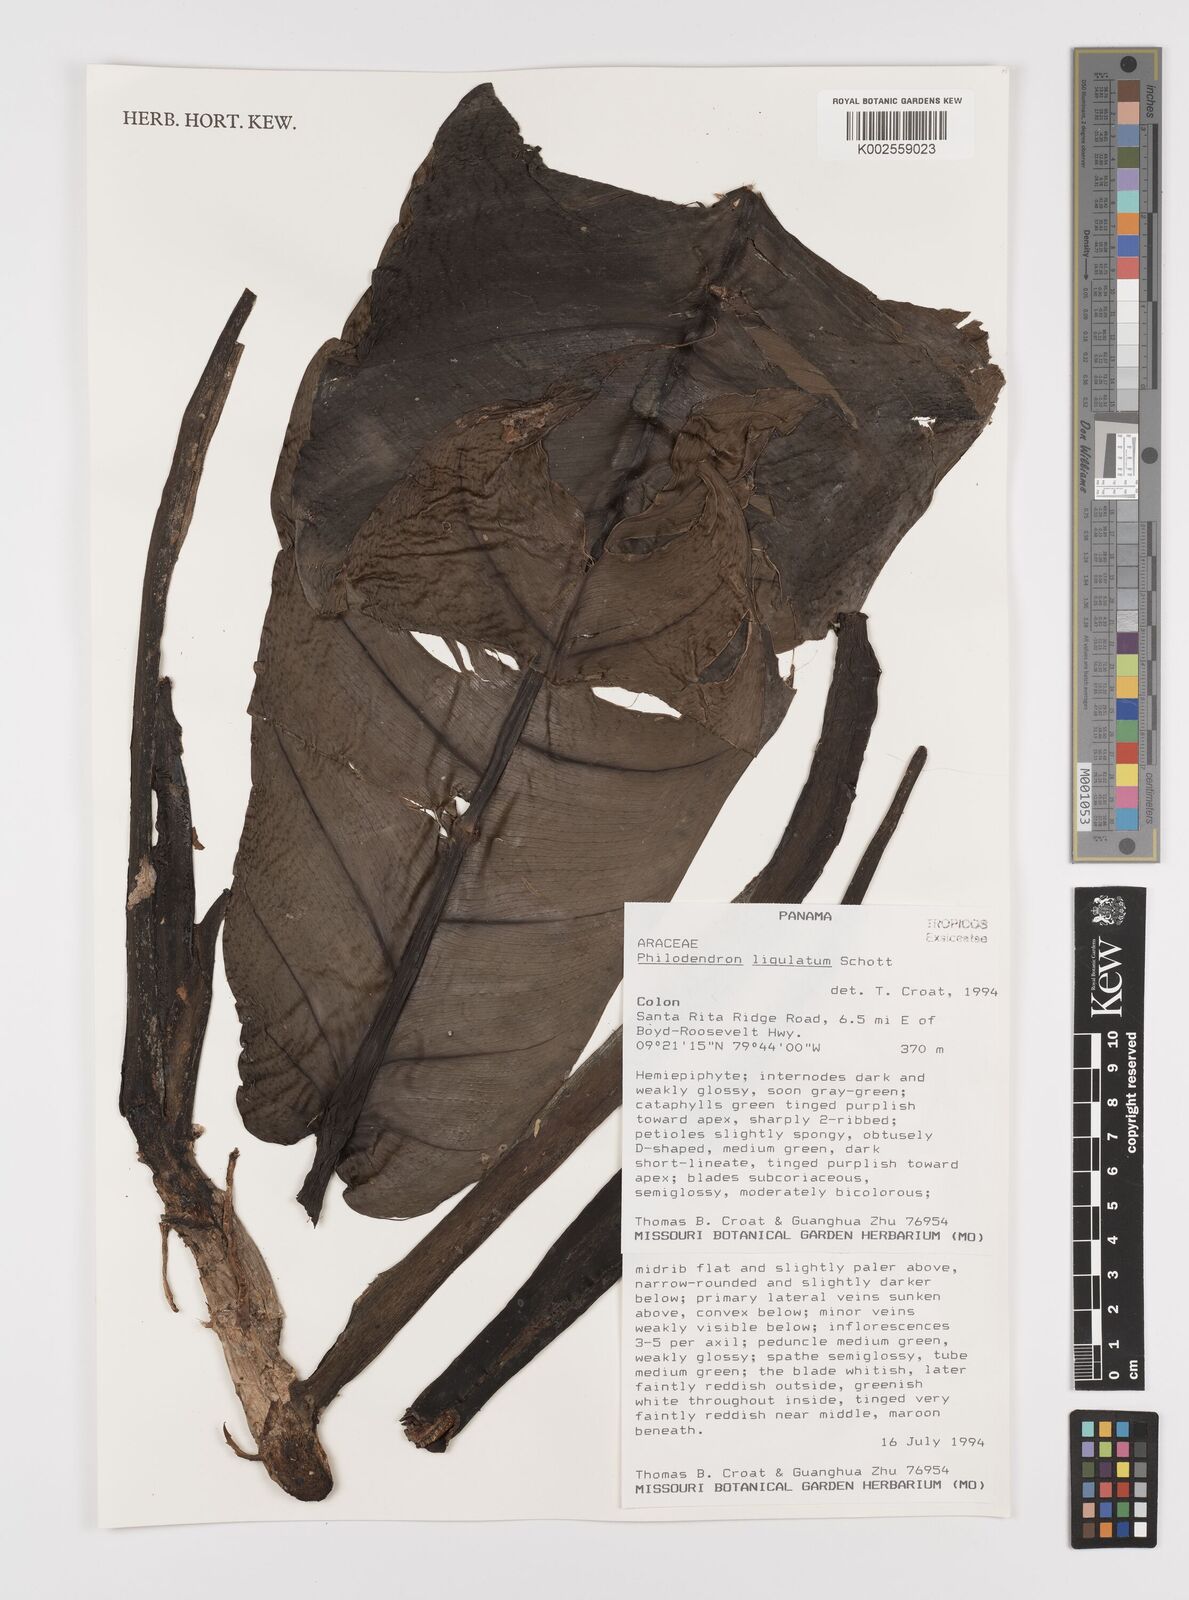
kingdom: Plantae
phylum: Tracheophyta
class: Liliopsida
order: Alismatales
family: Araceae
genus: Philodendron
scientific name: Philodendron ligulatum
